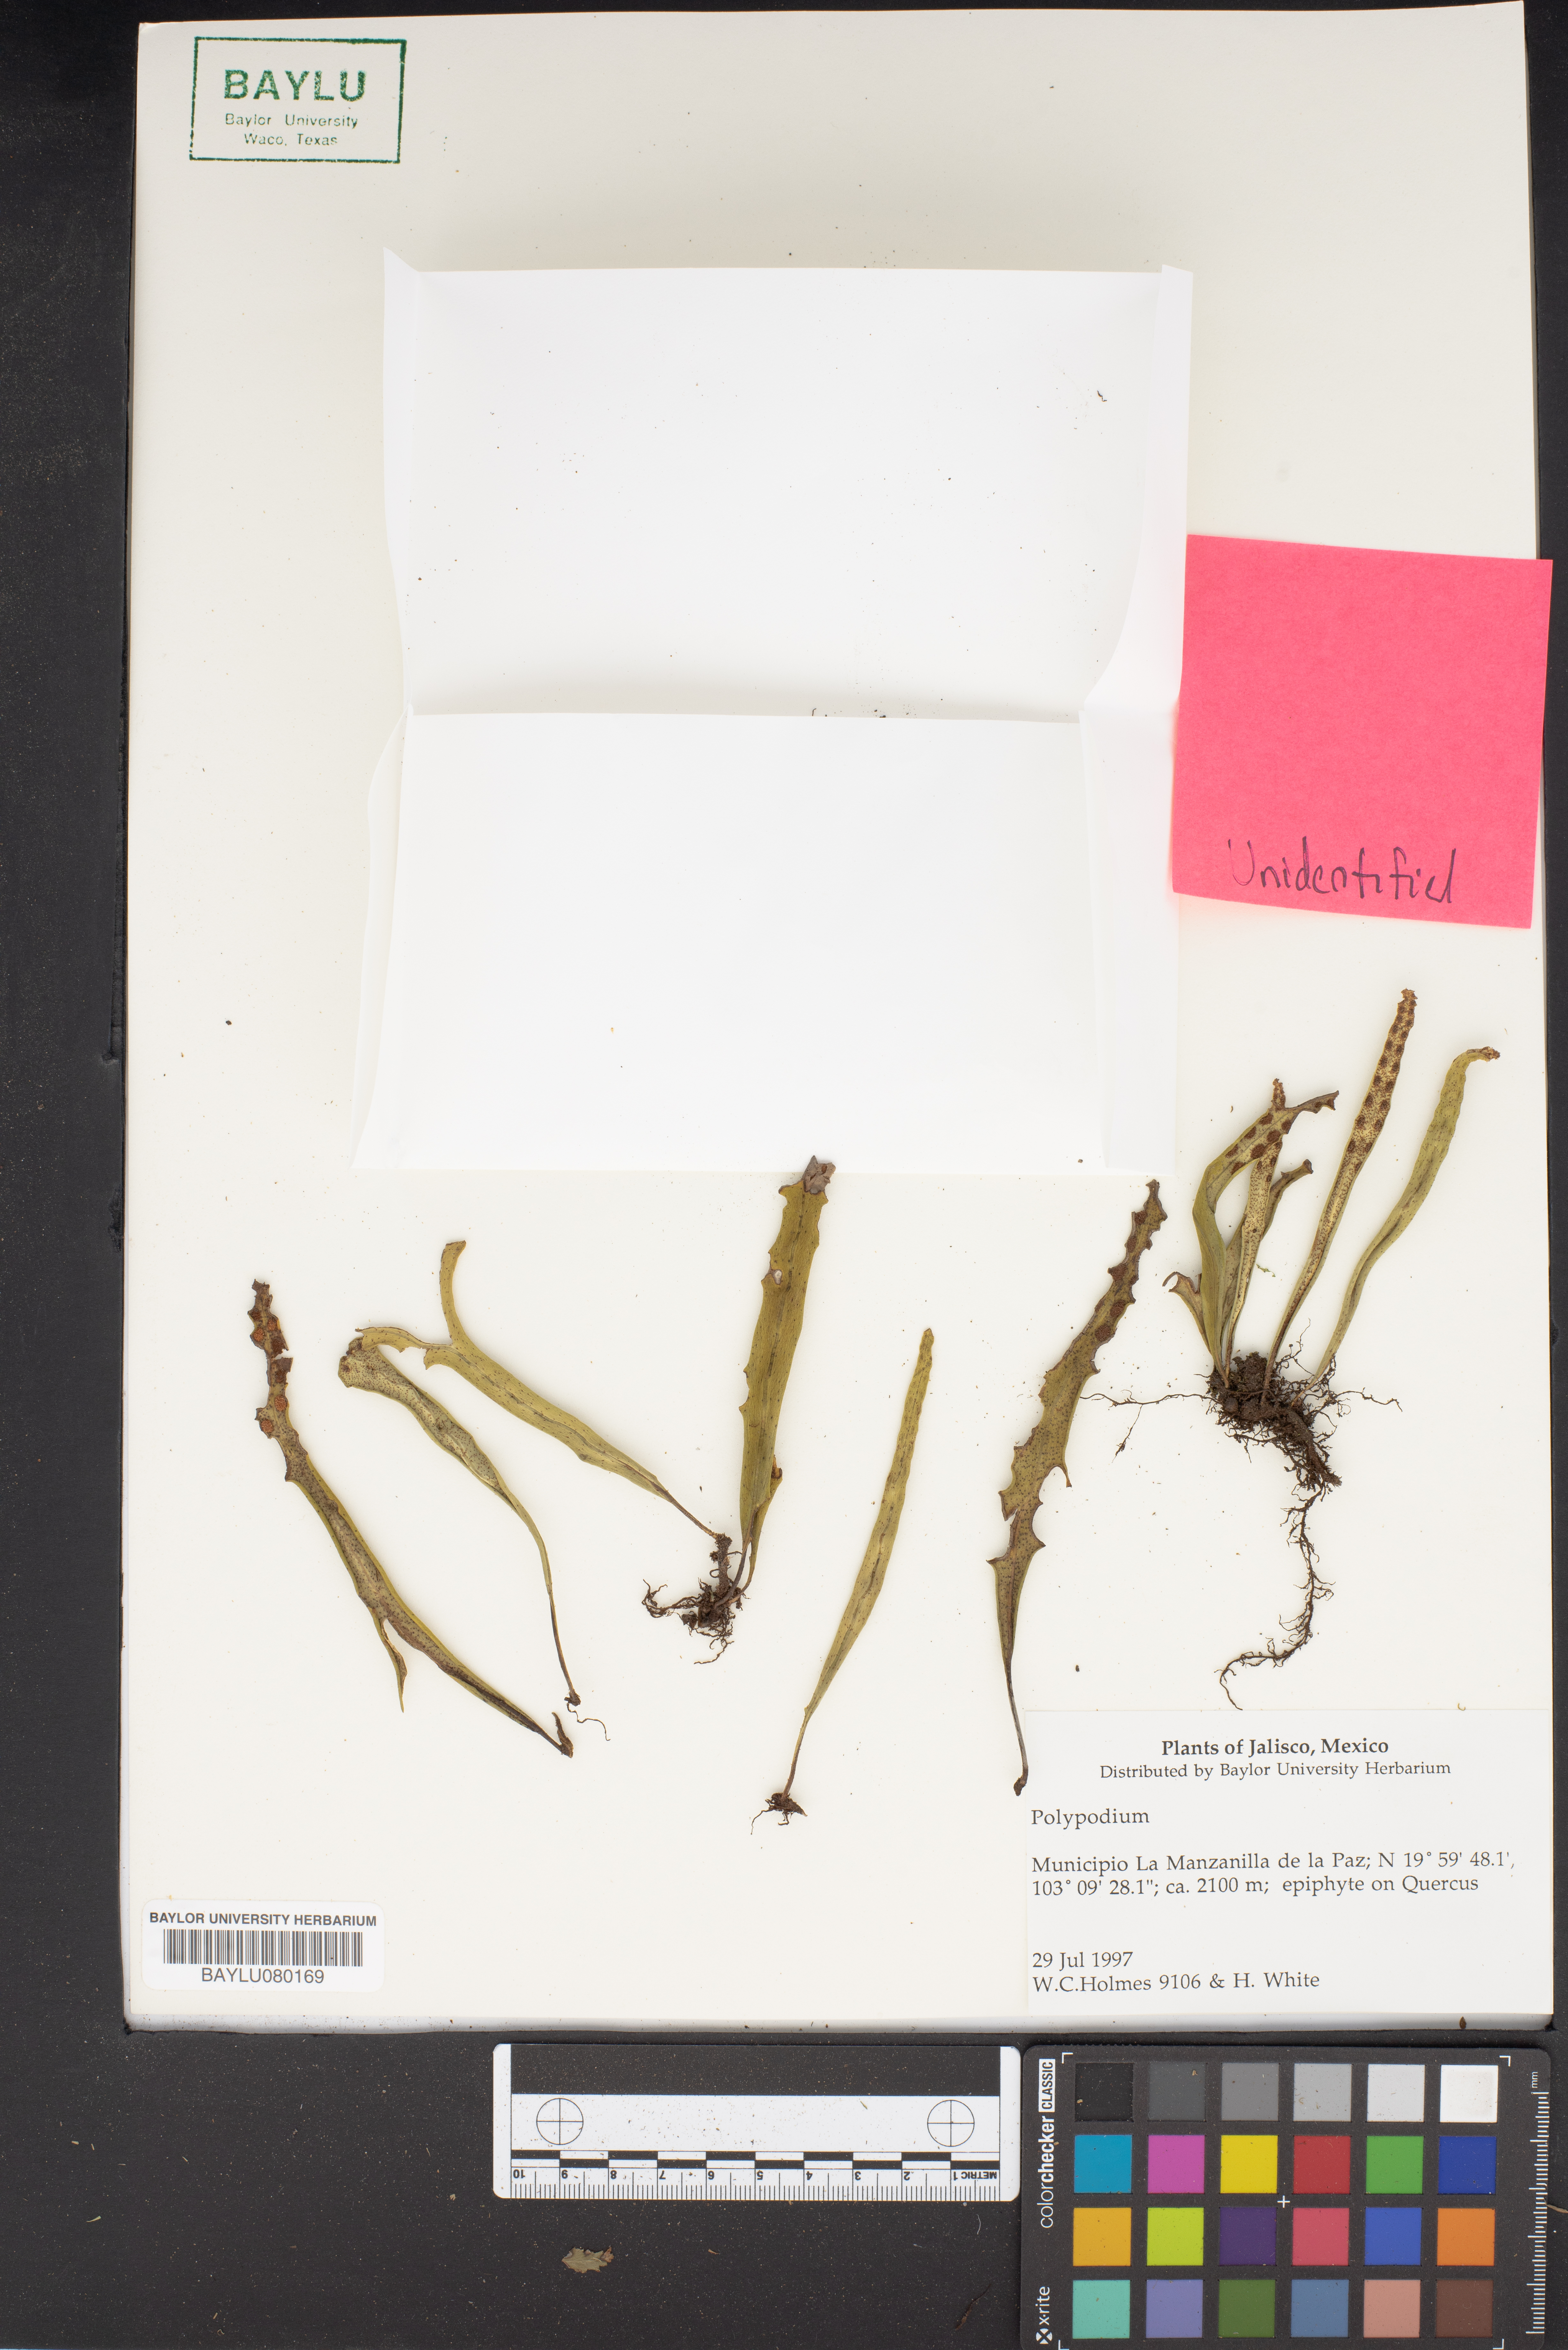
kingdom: Plantae
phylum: Tracheophyta
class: Polypodiopsida
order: Polypodiales
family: Polypodiaceae
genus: Polypodium
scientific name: Polypodium
